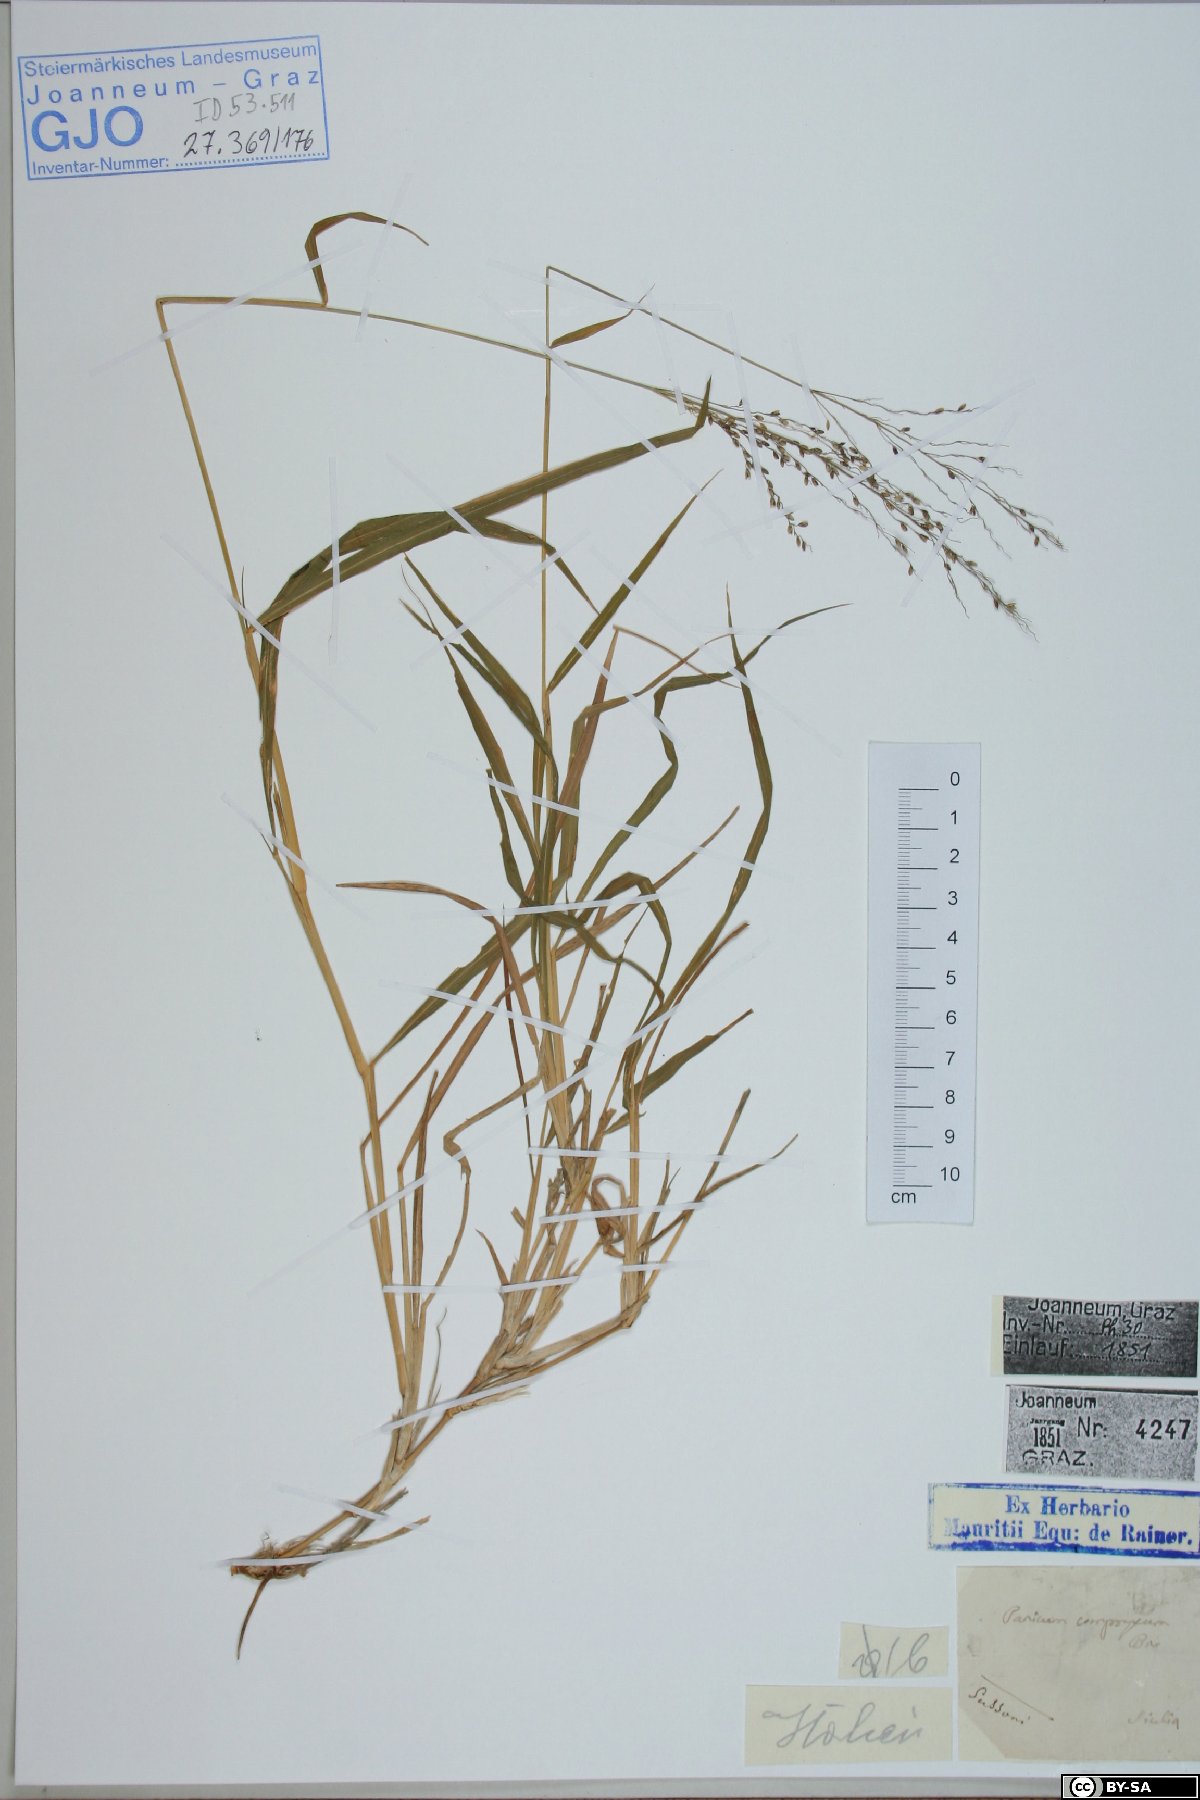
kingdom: Plantae
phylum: Tracheophyta
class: Liliopsida
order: Poales
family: Poaceae
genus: Megathyrsus
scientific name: Megathyrsus maximus
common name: Guineagrass
